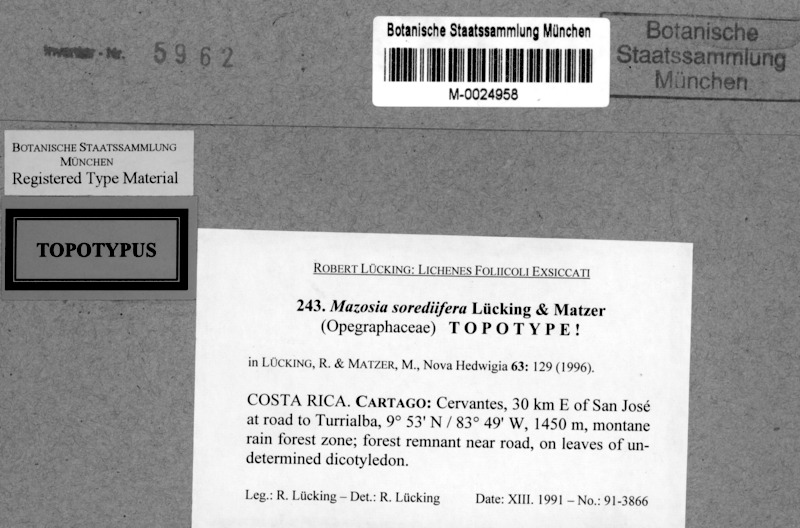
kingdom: Fungi
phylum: Ascomycota
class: Arthoniomycetes
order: Arthoniales
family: Roccellaceae
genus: Mazosia
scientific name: Mazosia
